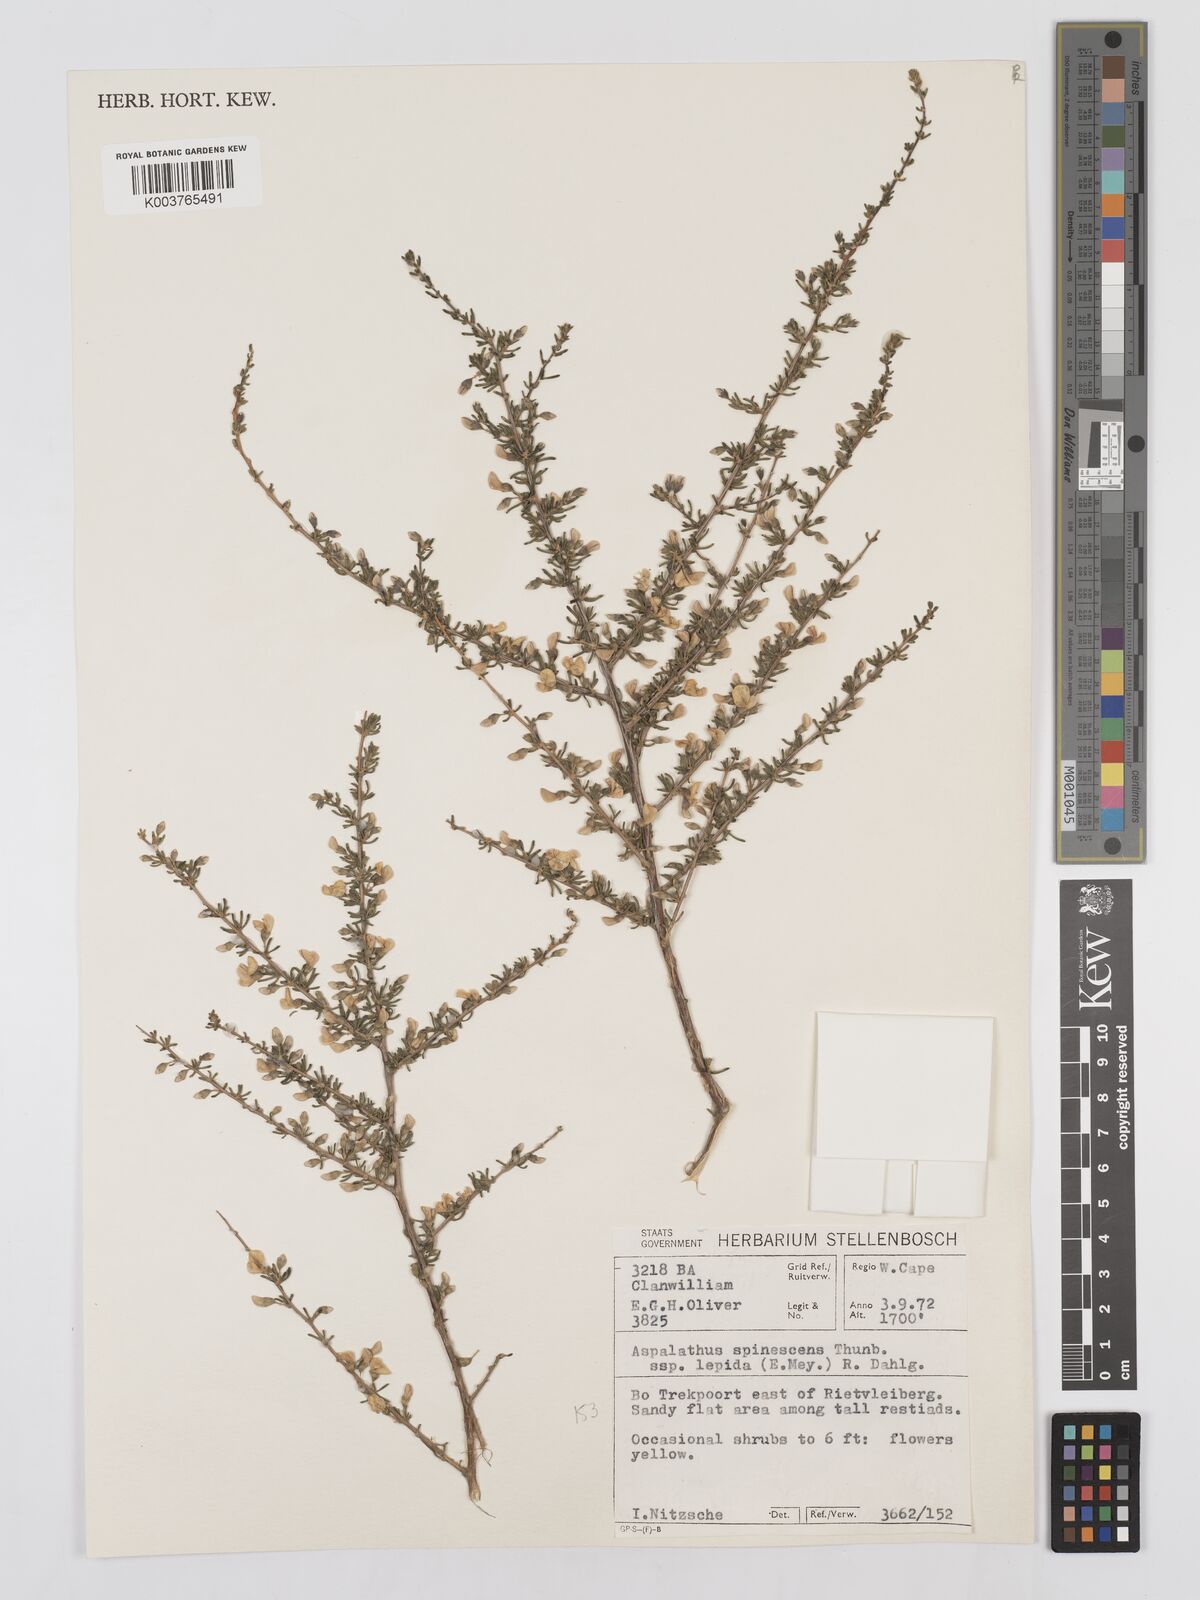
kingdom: Plantae
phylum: Tracheophyta
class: Magnoliopsida
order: Fabales
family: Fabaceae
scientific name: Fabaceae
